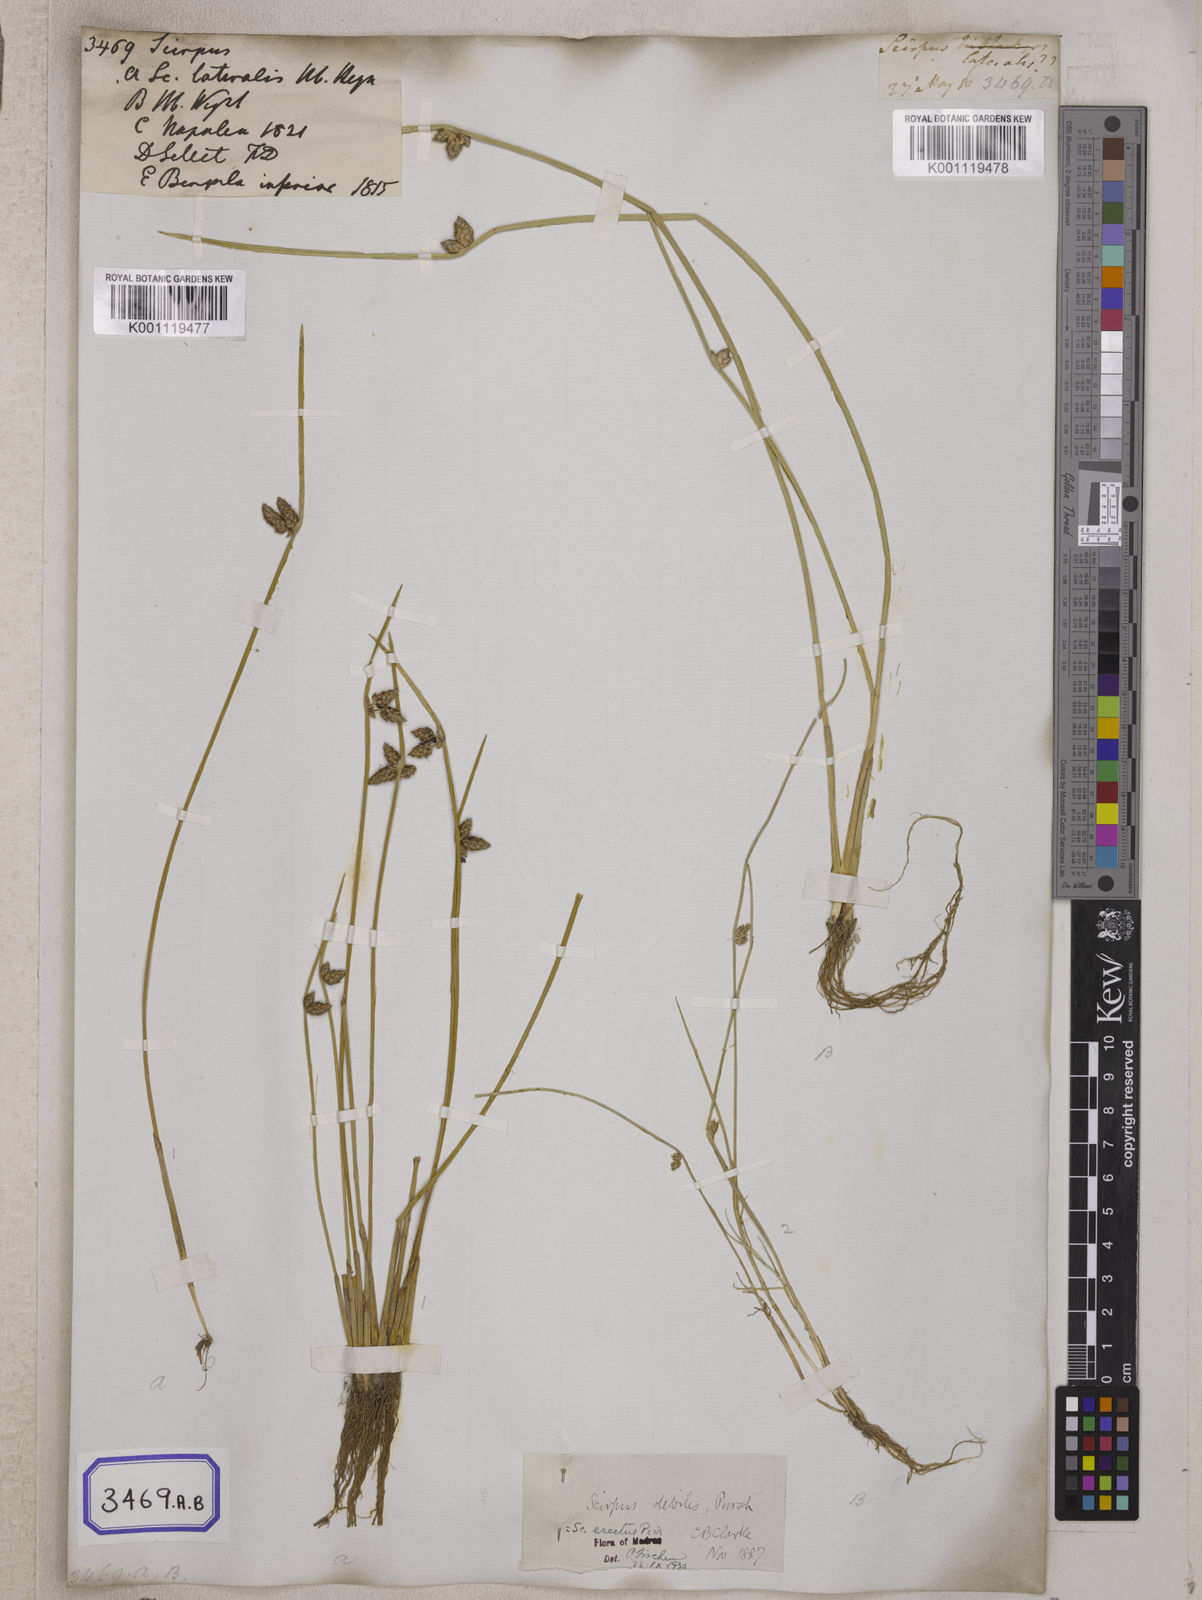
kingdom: Plantae
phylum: Tracheophyta
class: Liliopsida
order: Poales
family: Cyperaceae
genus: Scirpus
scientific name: Scirpus
